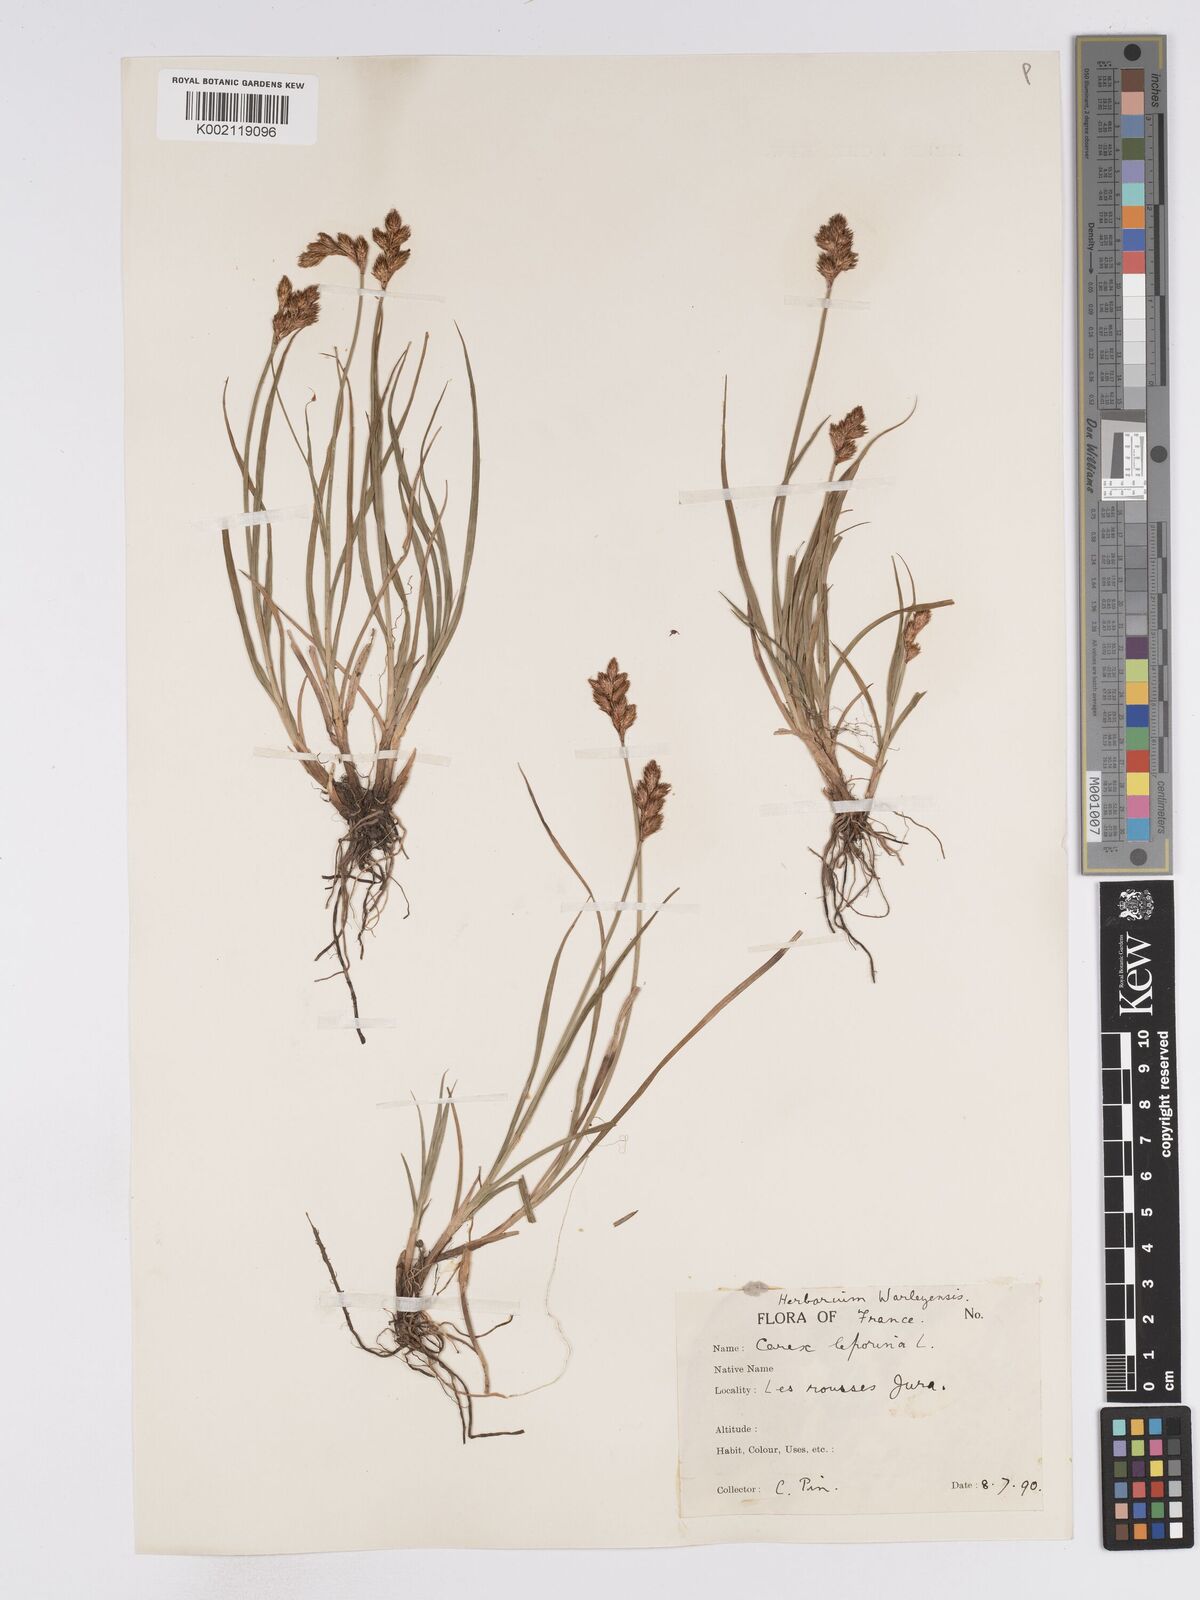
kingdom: Plantae
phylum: Tracheophyta
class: Liliopsida
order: Poales
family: Cyperaceae
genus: Carex
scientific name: Carex leporina
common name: Oval sedge
